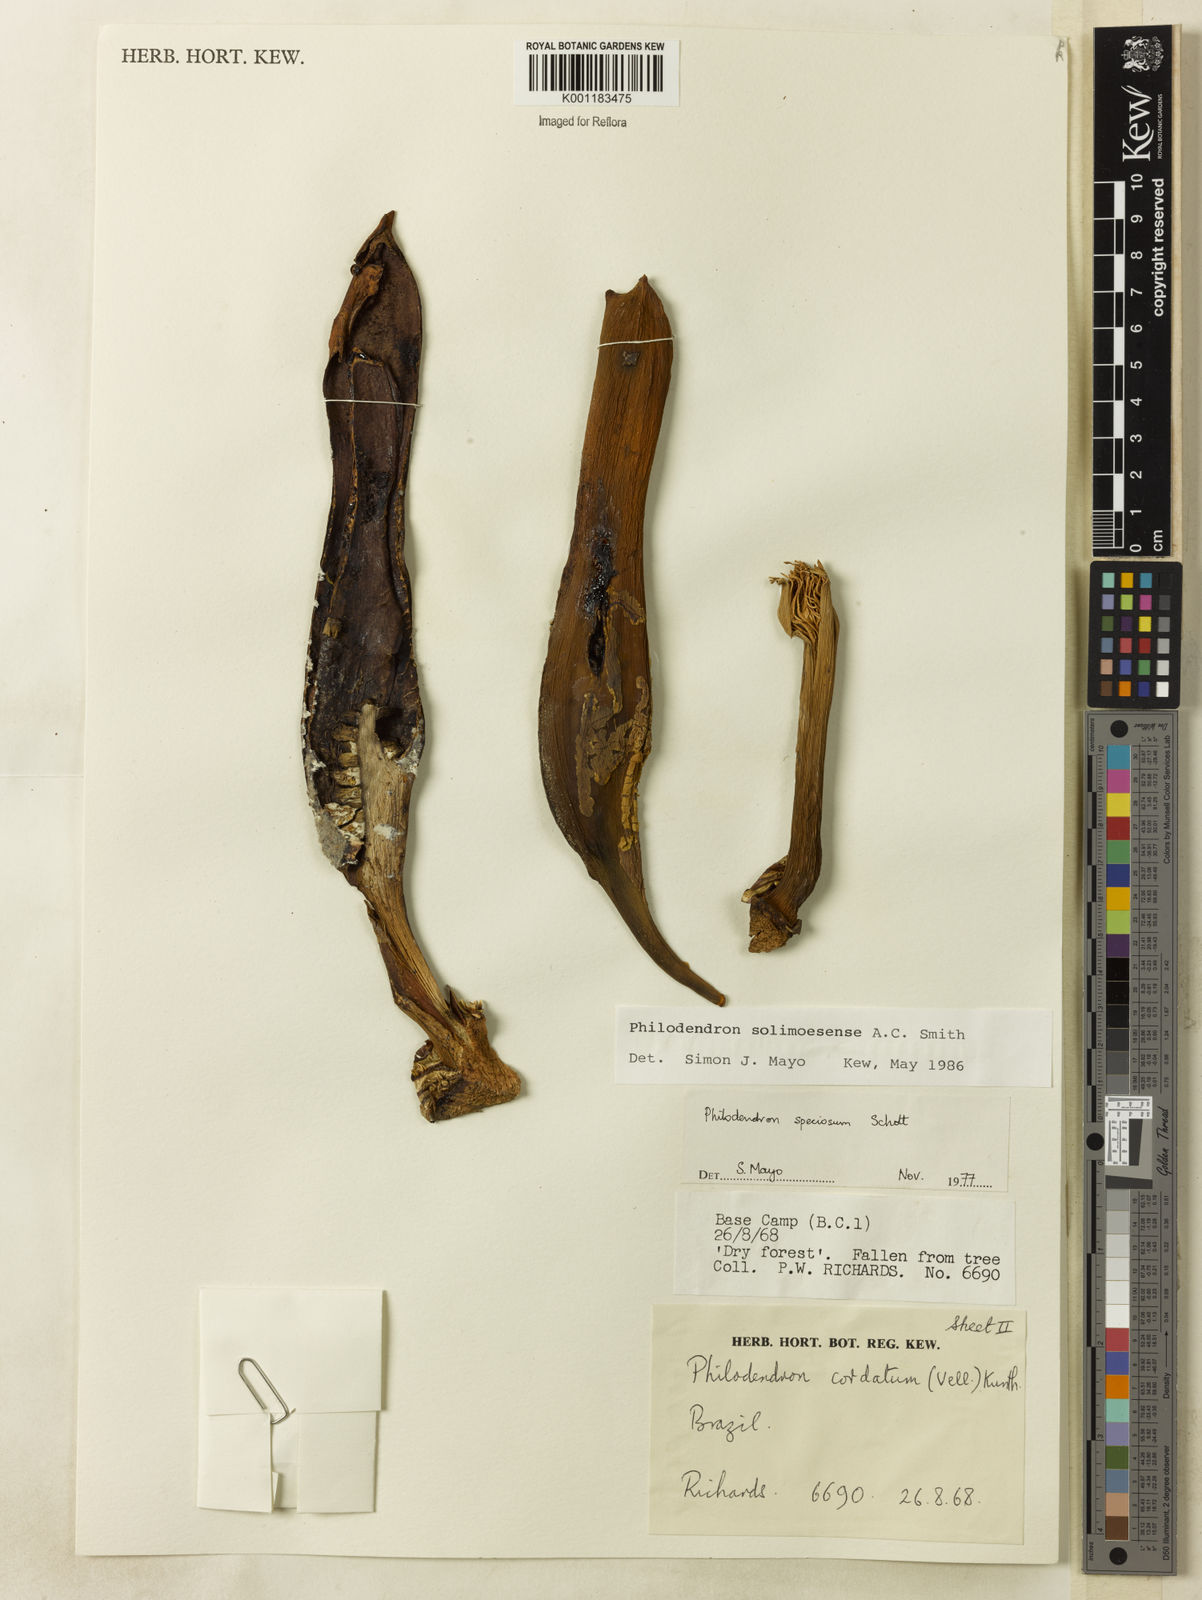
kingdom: Plantae
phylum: Tracheophyta
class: Liliopsida
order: Alismatales
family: Araceae
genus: Thaumatophyllum
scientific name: Thaumatophyllum solimoesense
